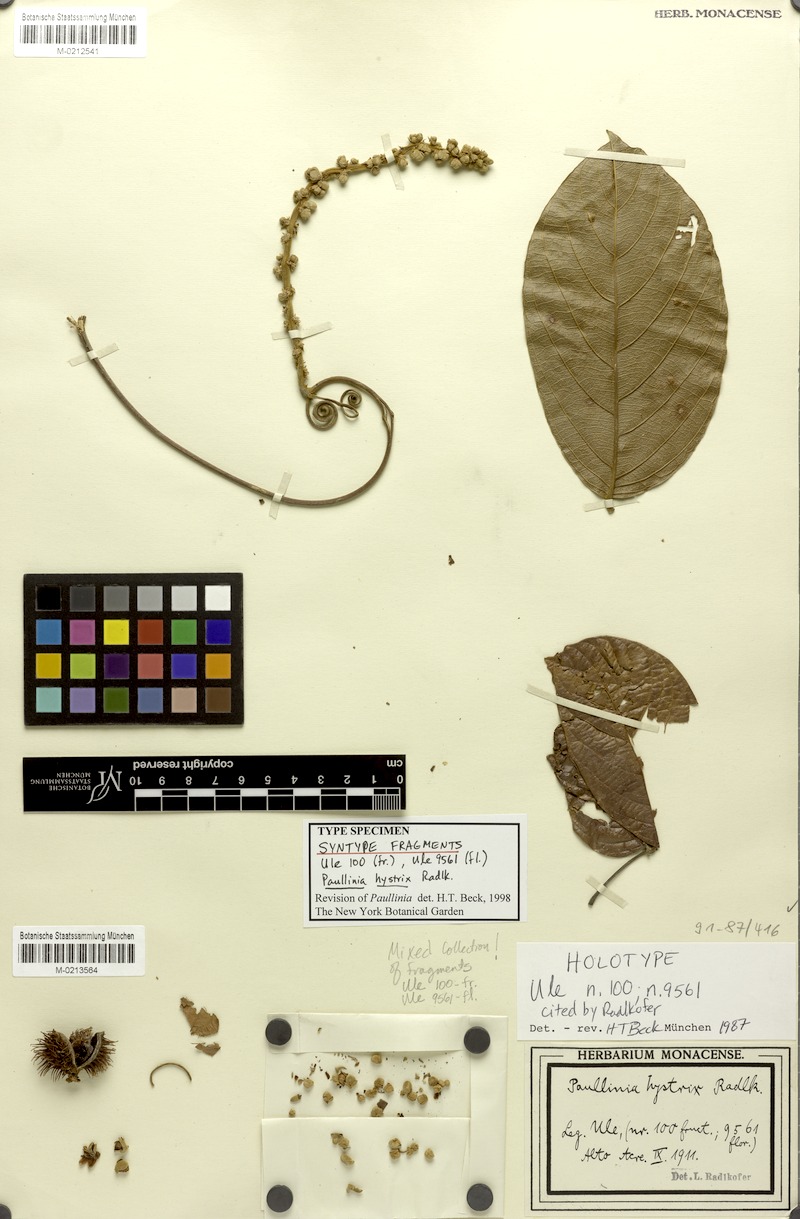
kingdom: Plantae
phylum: Tracheophyta
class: Magnoliopsida
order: Sapindales
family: Sapindaceae
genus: Paullinia
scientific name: Paullinia hystrix
